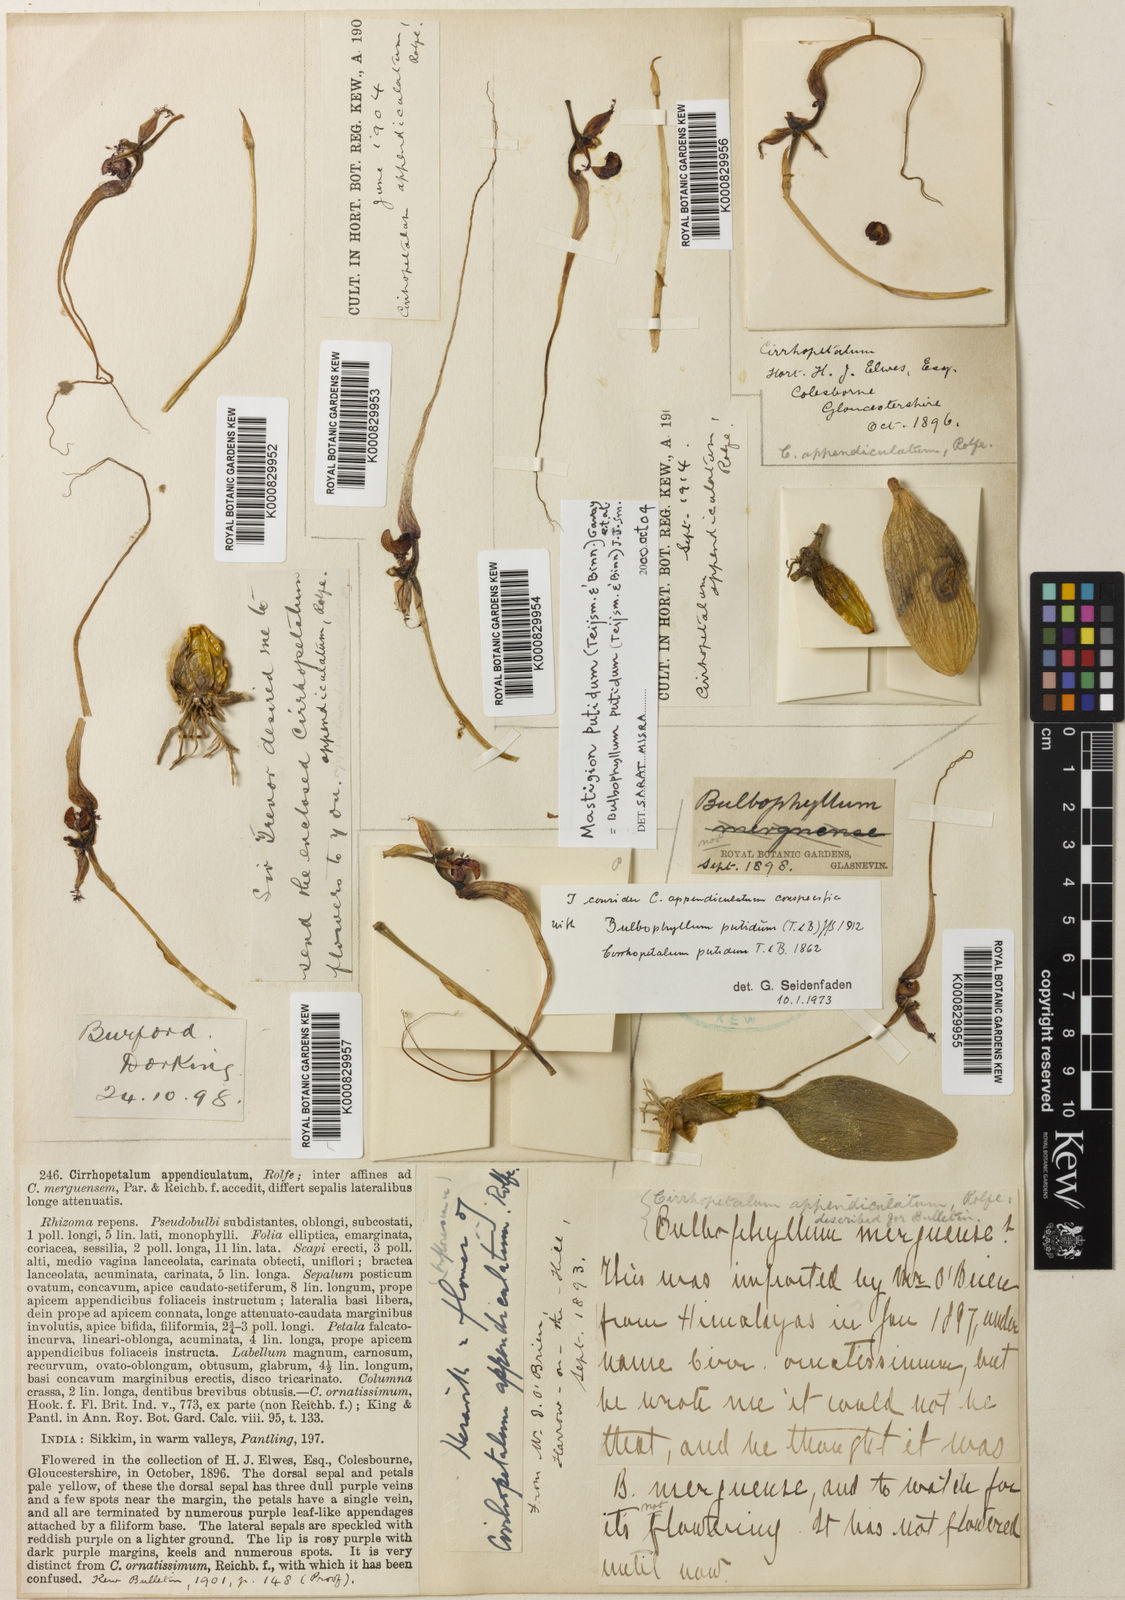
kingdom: Plantae
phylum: Tracheophyta
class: Liliopsida
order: Asparagales
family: Orchidaceae
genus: Bulbophyllum
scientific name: Bulbophyllum putidum
